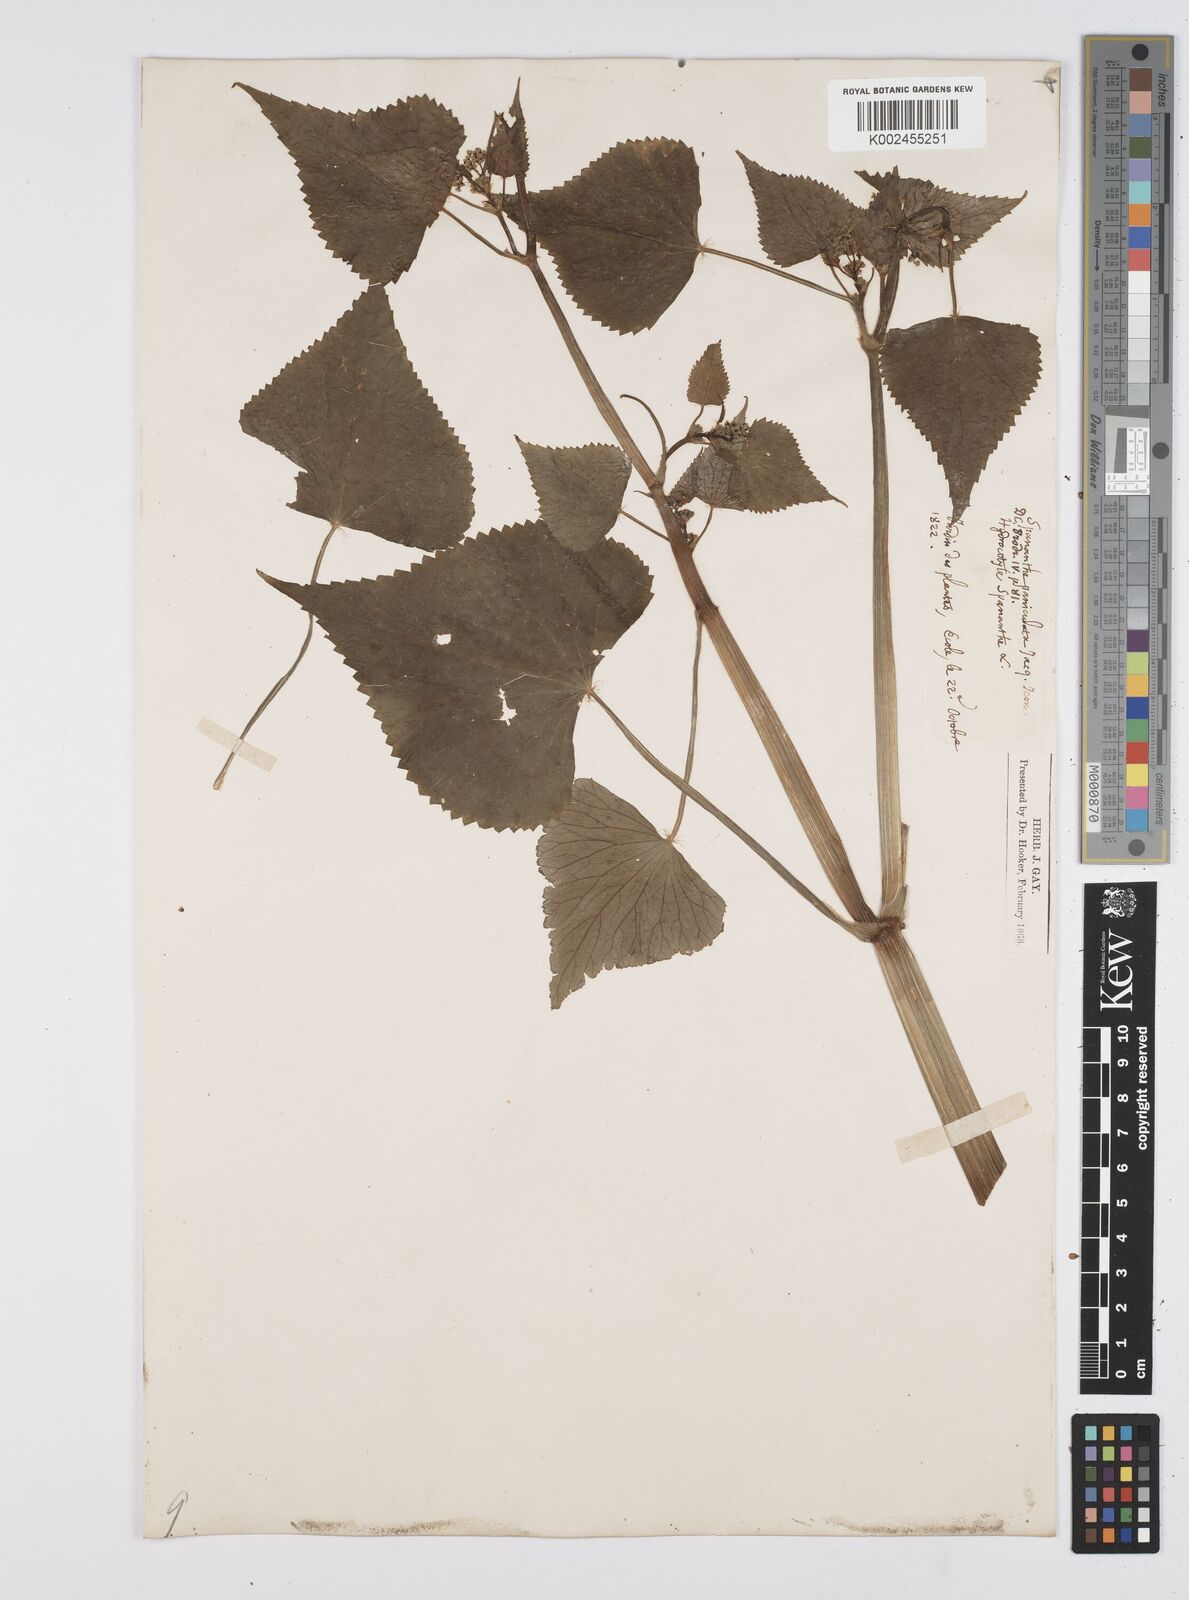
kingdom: Plantae
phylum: Tracheophyta
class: Magnoliopsida
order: Apiales
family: Apiaceae
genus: Azorella
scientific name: Azorella
